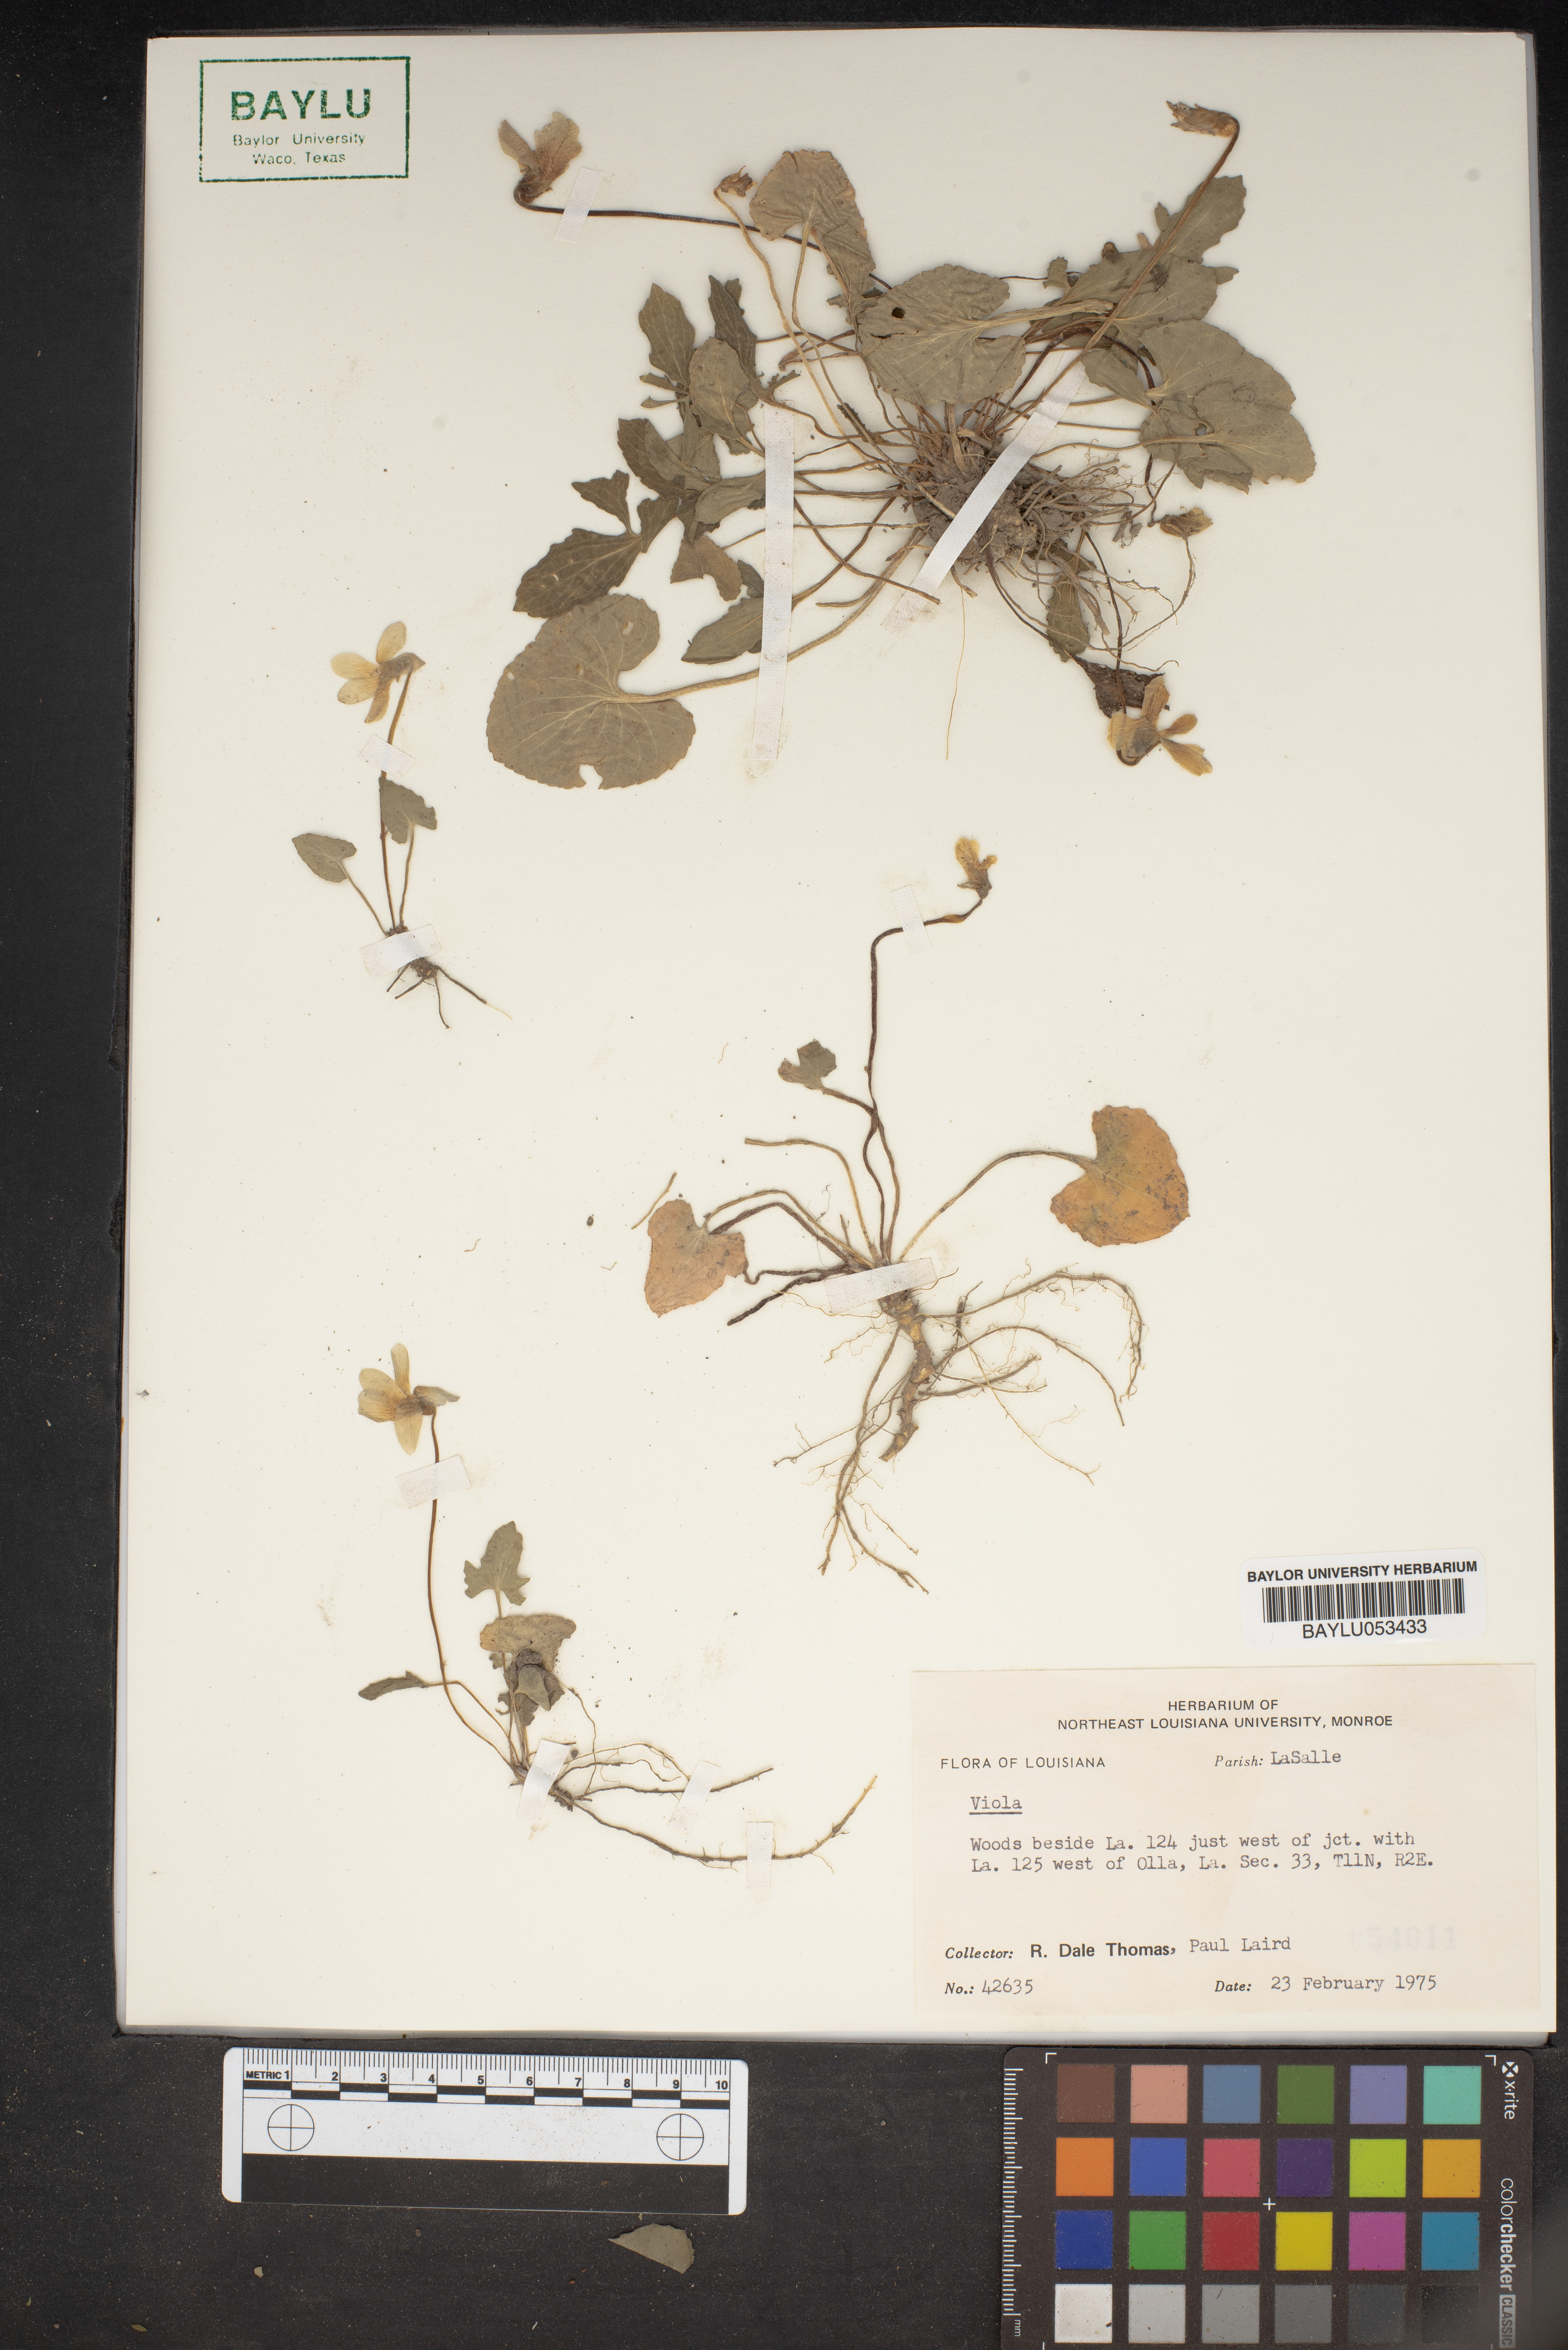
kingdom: Plantae
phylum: Tracheophyta
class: Magnoliopsida
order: Malpighiales
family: Violaceae
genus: Viola
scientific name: Viola
